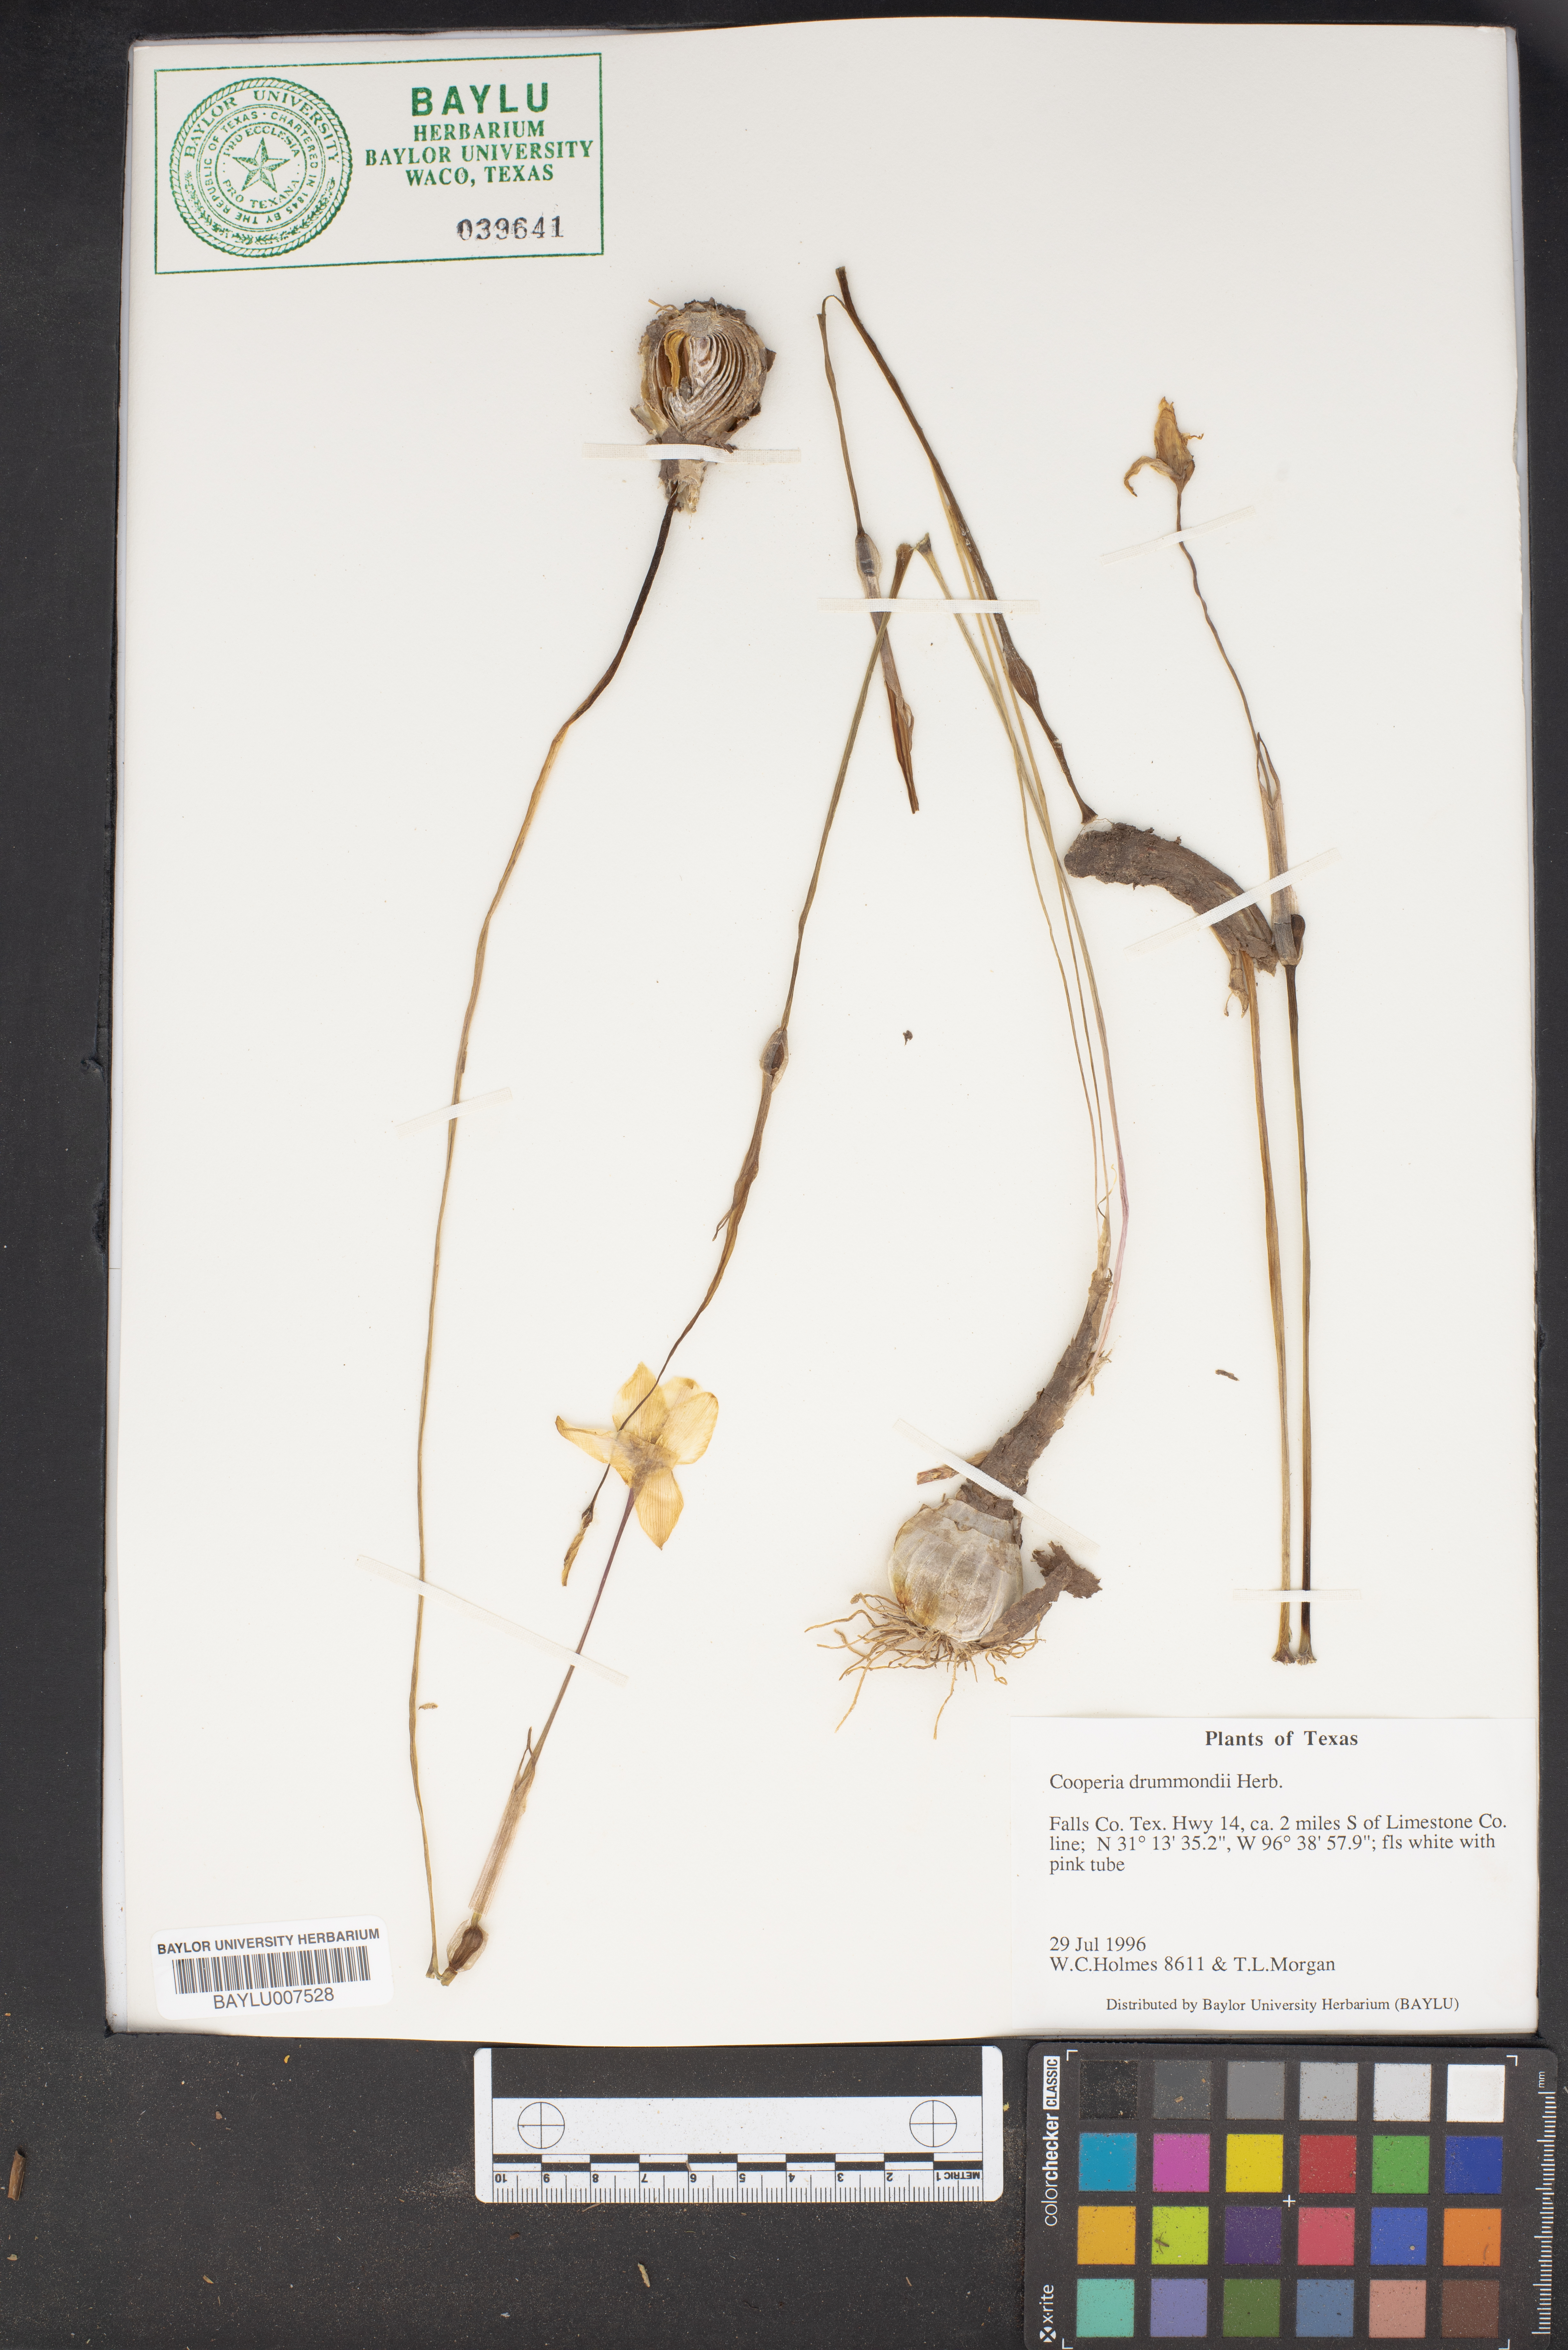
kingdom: Plantae
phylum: Tracheophyta
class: Liliopsida
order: Asparagales
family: Amaryllidaceae
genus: Zephyranthes
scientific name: Zephyranthes chlorosolen
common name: Evening rain-lily
